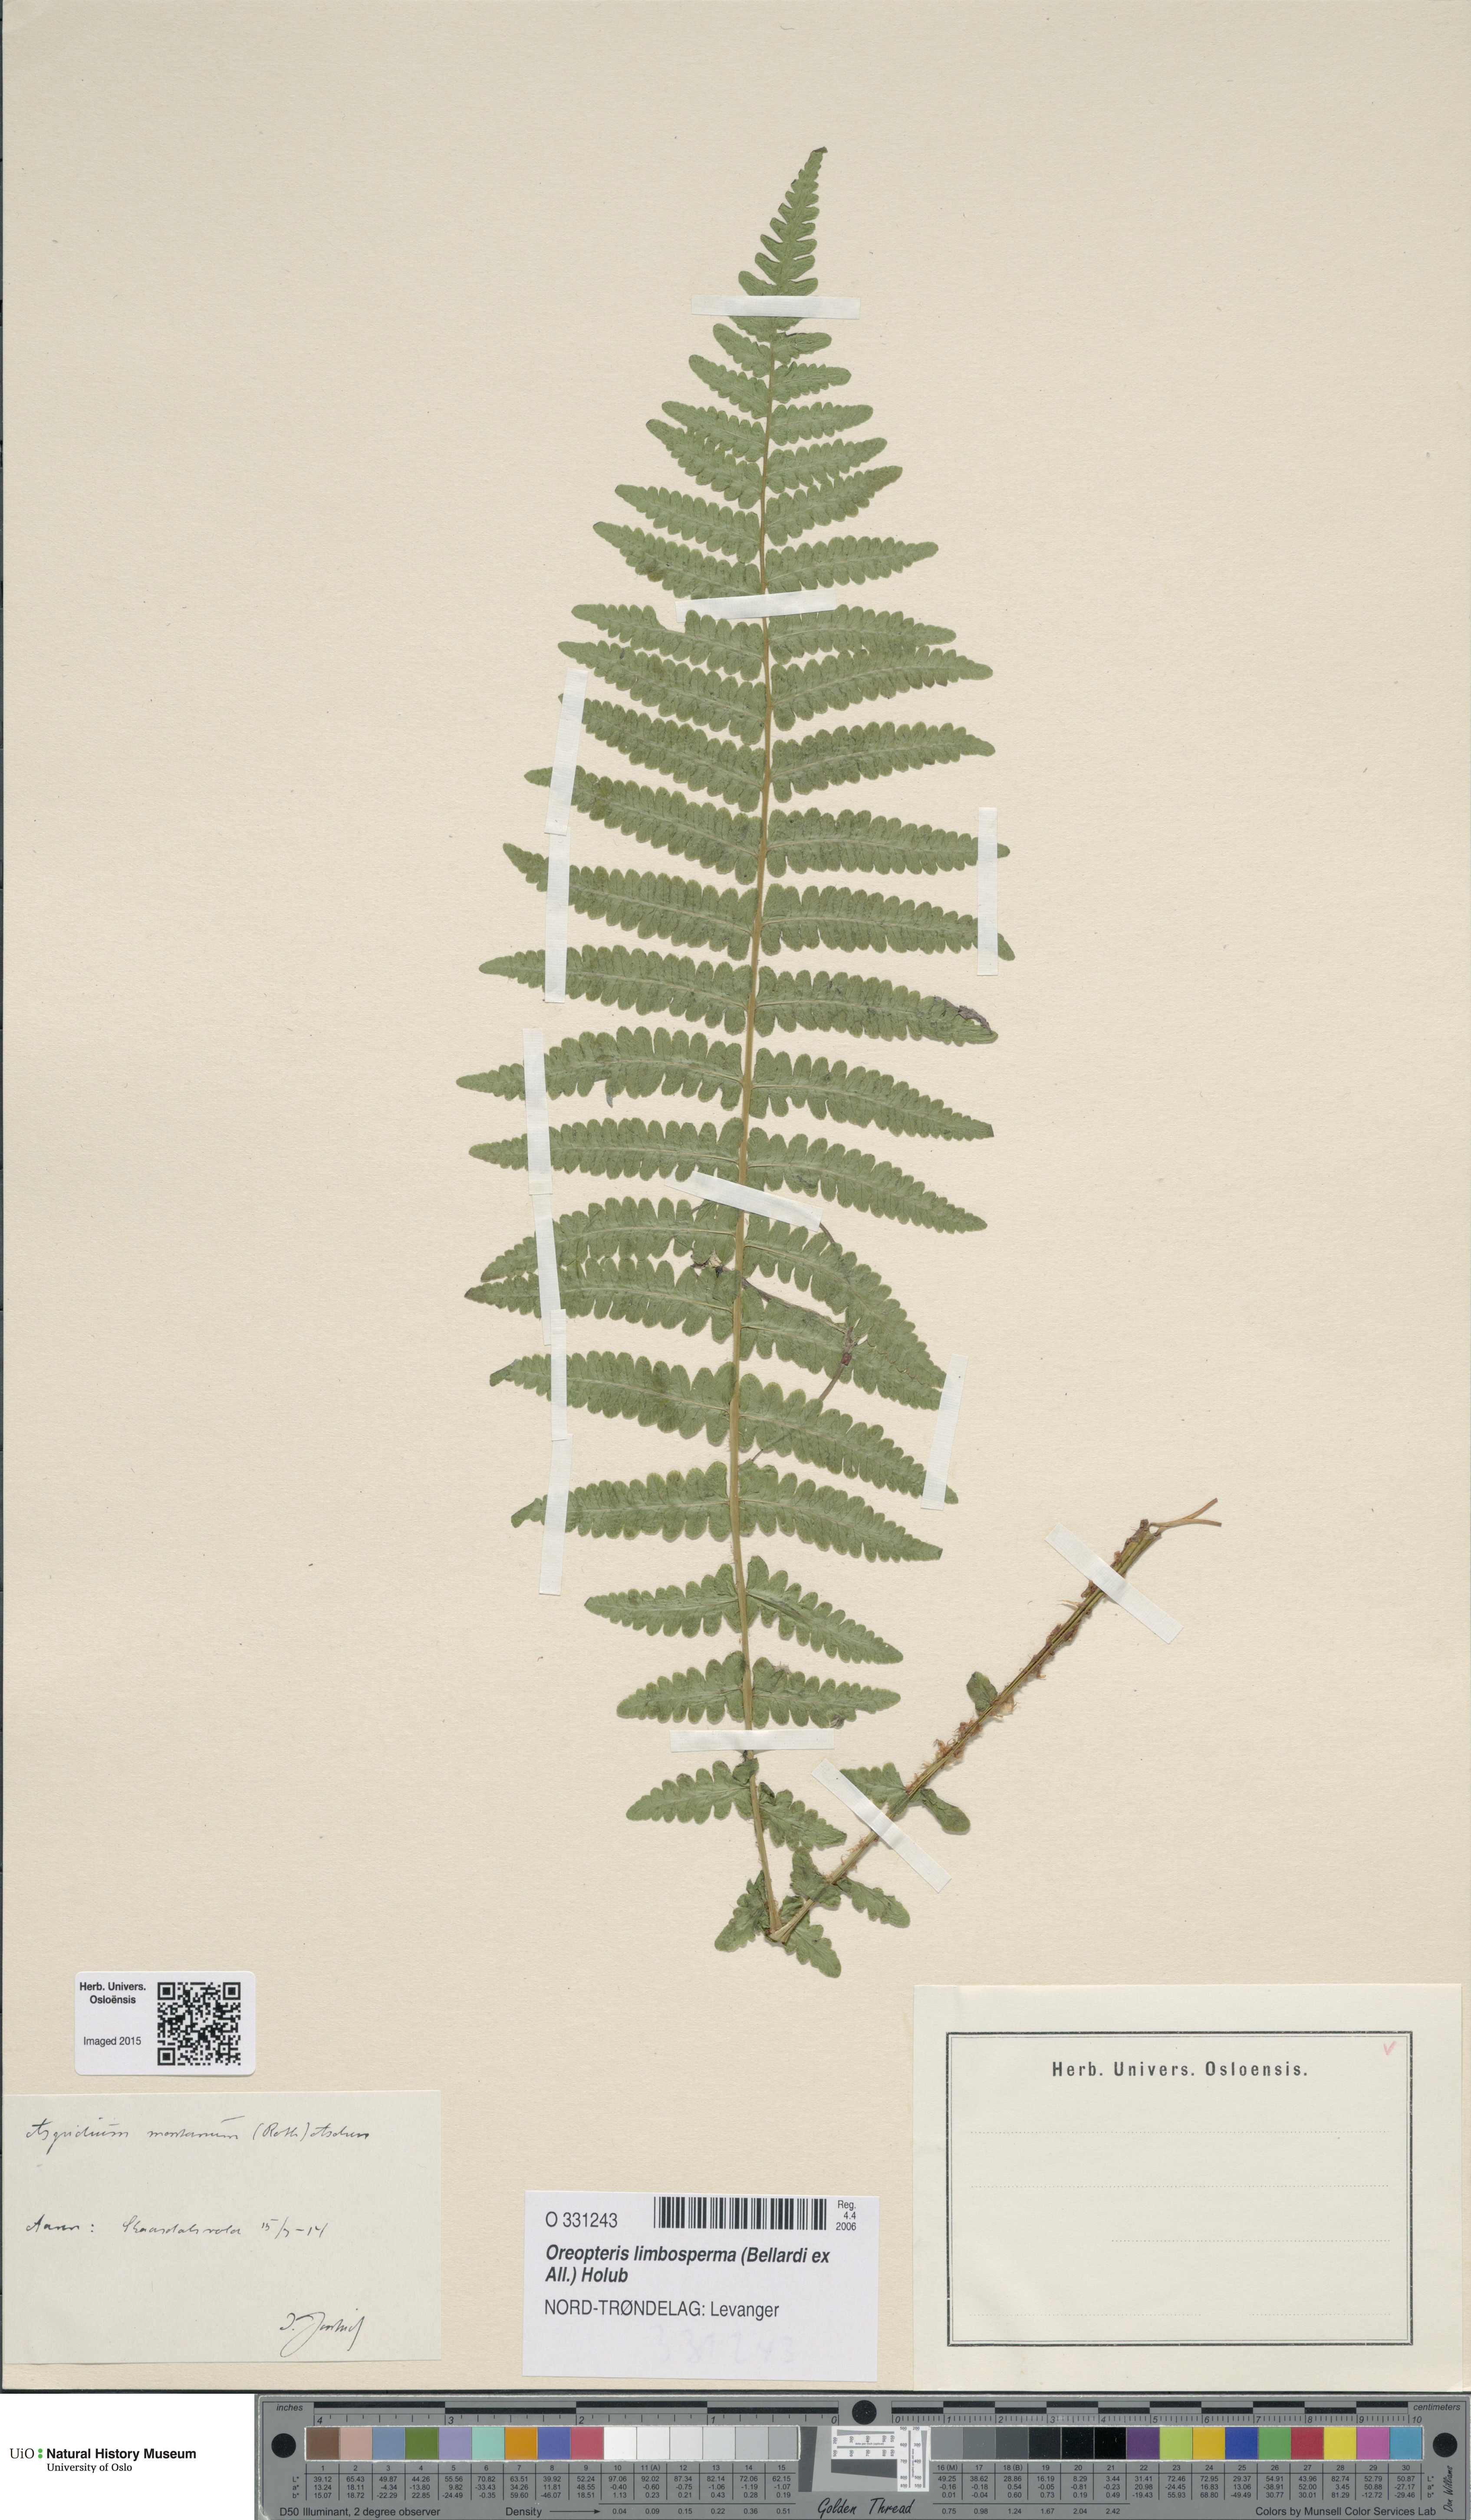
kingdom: Plantae
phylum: Tracheophyta
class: Polypodiopsida
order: Polypodiales
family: Thelypteridaceae
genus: Oreopteris
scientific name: Oreopteris limbosperma
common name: Lemon-scented fern
